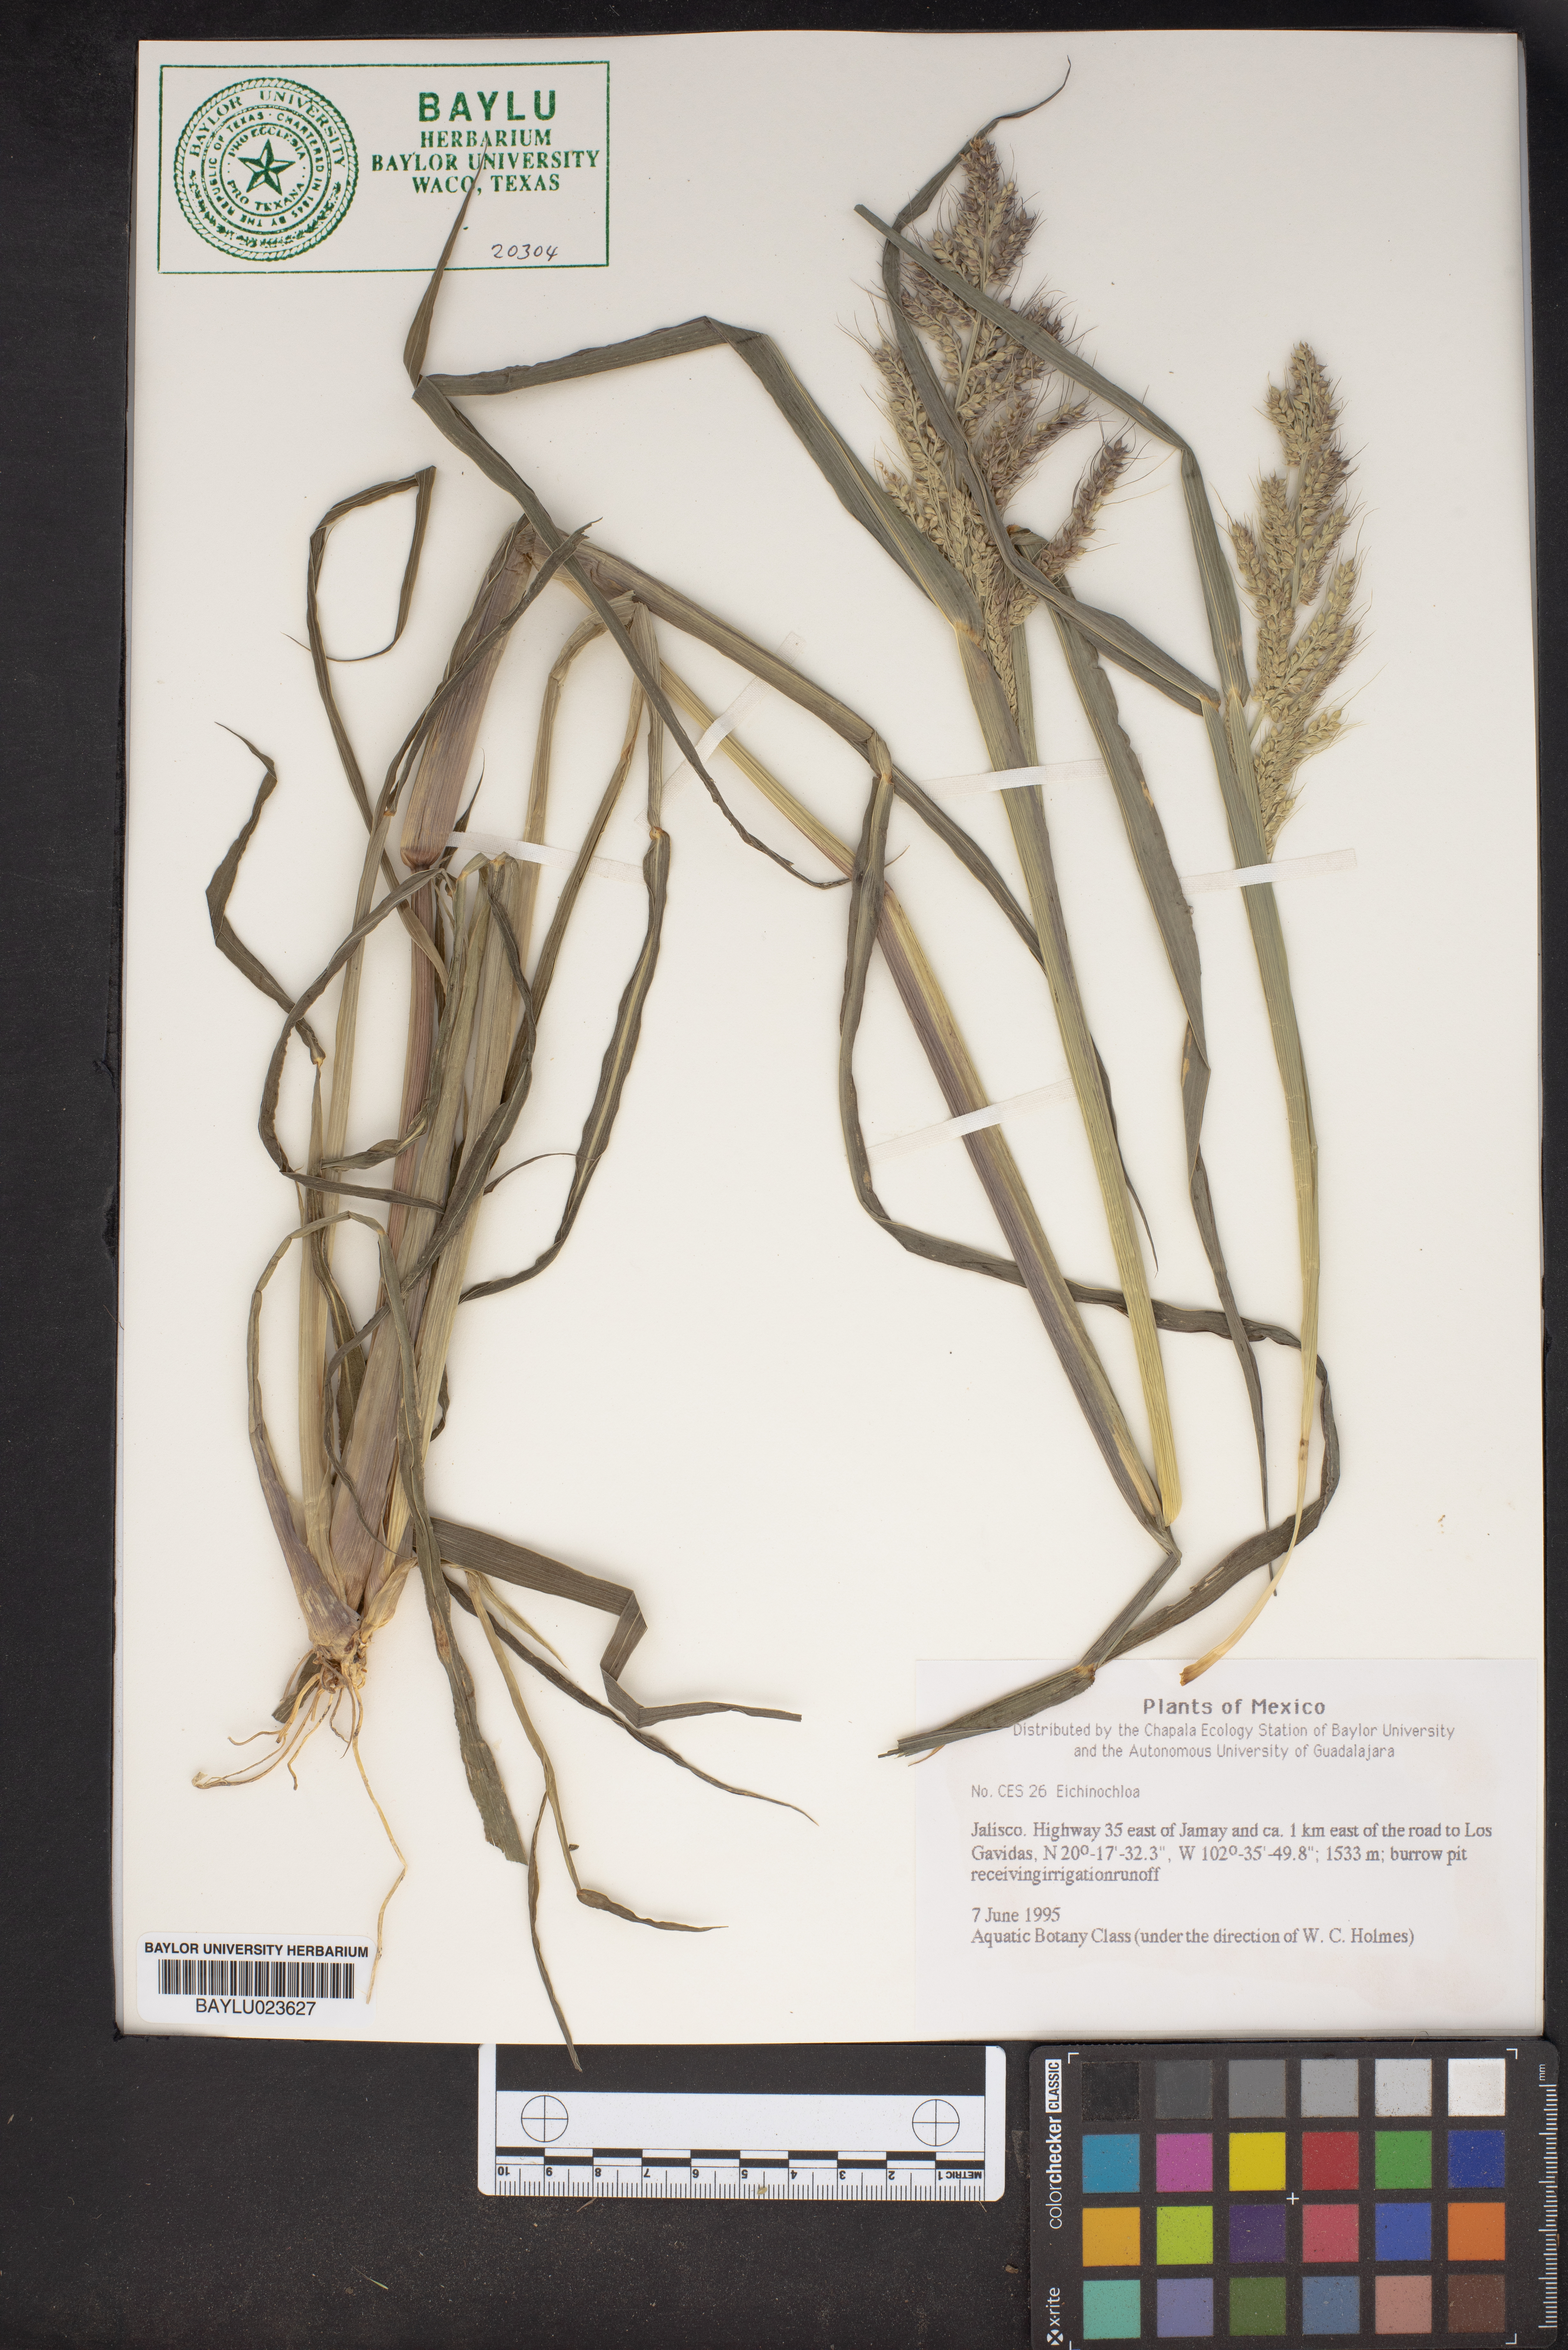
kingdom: Plantae
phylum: Tracheophyta
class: Liliopsida
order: Poales
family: Poaceae
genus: Echinochloa
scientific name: Echinochloa
